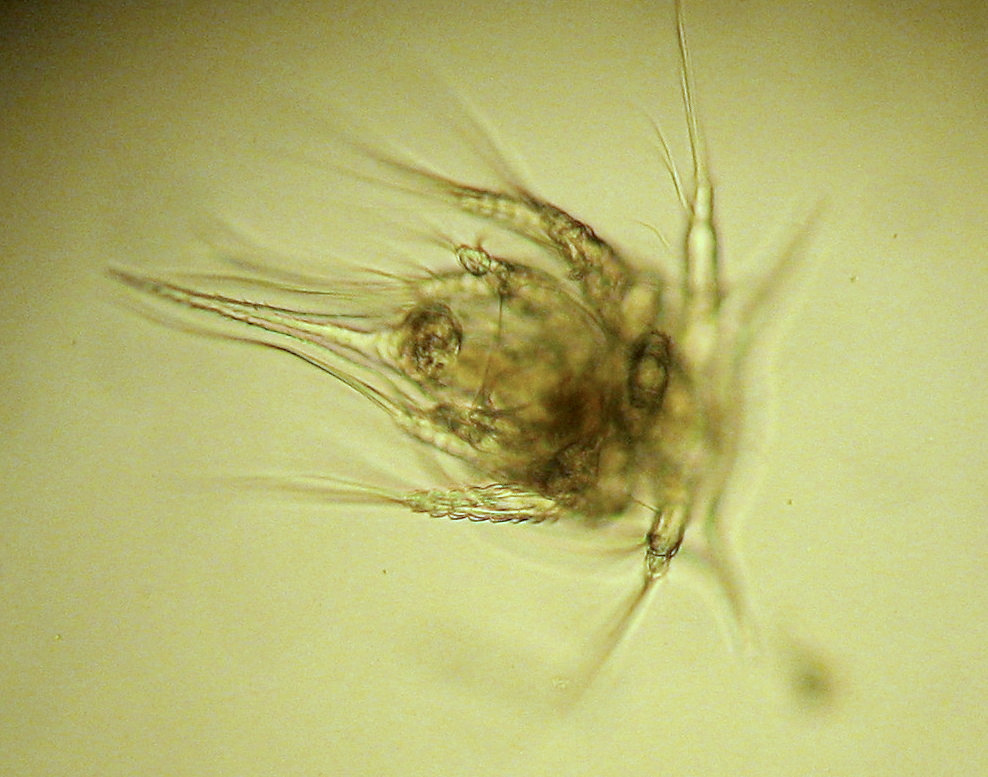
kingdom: Animalia
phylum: Arthropoda
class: Maxillopoda
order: Sessilia
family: Archaeobalanidae
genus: Semibalanus
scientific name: Semibalanus balanoides
